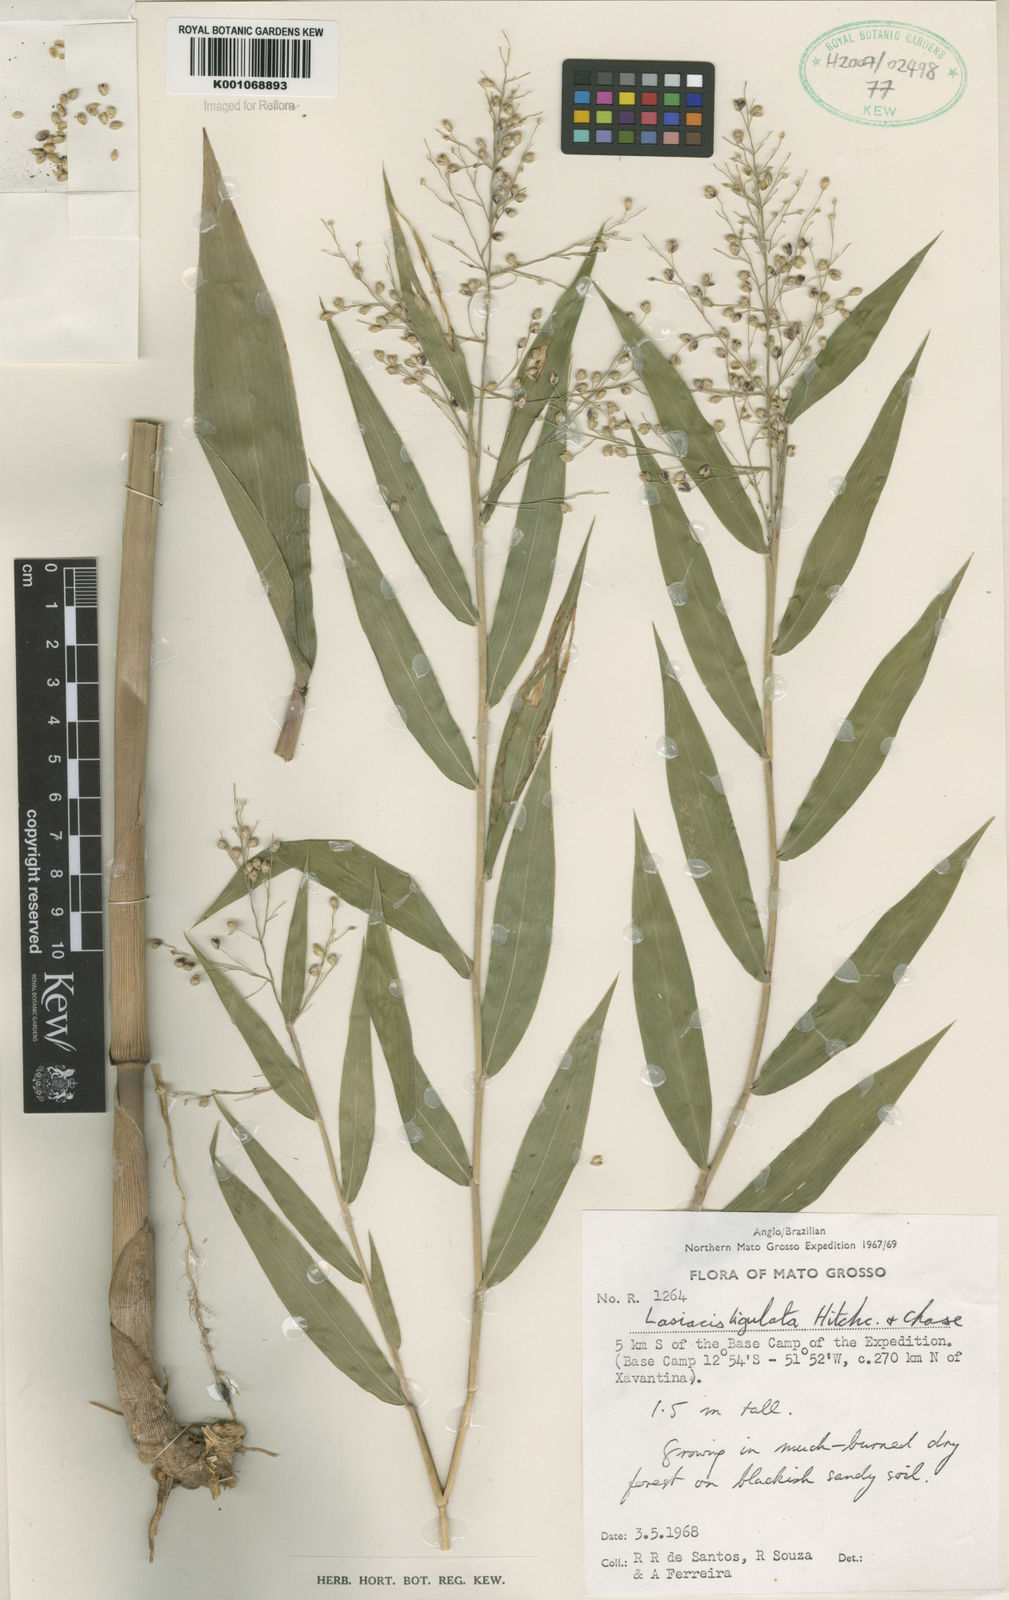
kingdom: Plantae
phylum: Tracheophyta
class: Liliopsida
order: Poales
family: Poaceae
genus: Lasiacis
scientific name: Lasiacis ligulata
